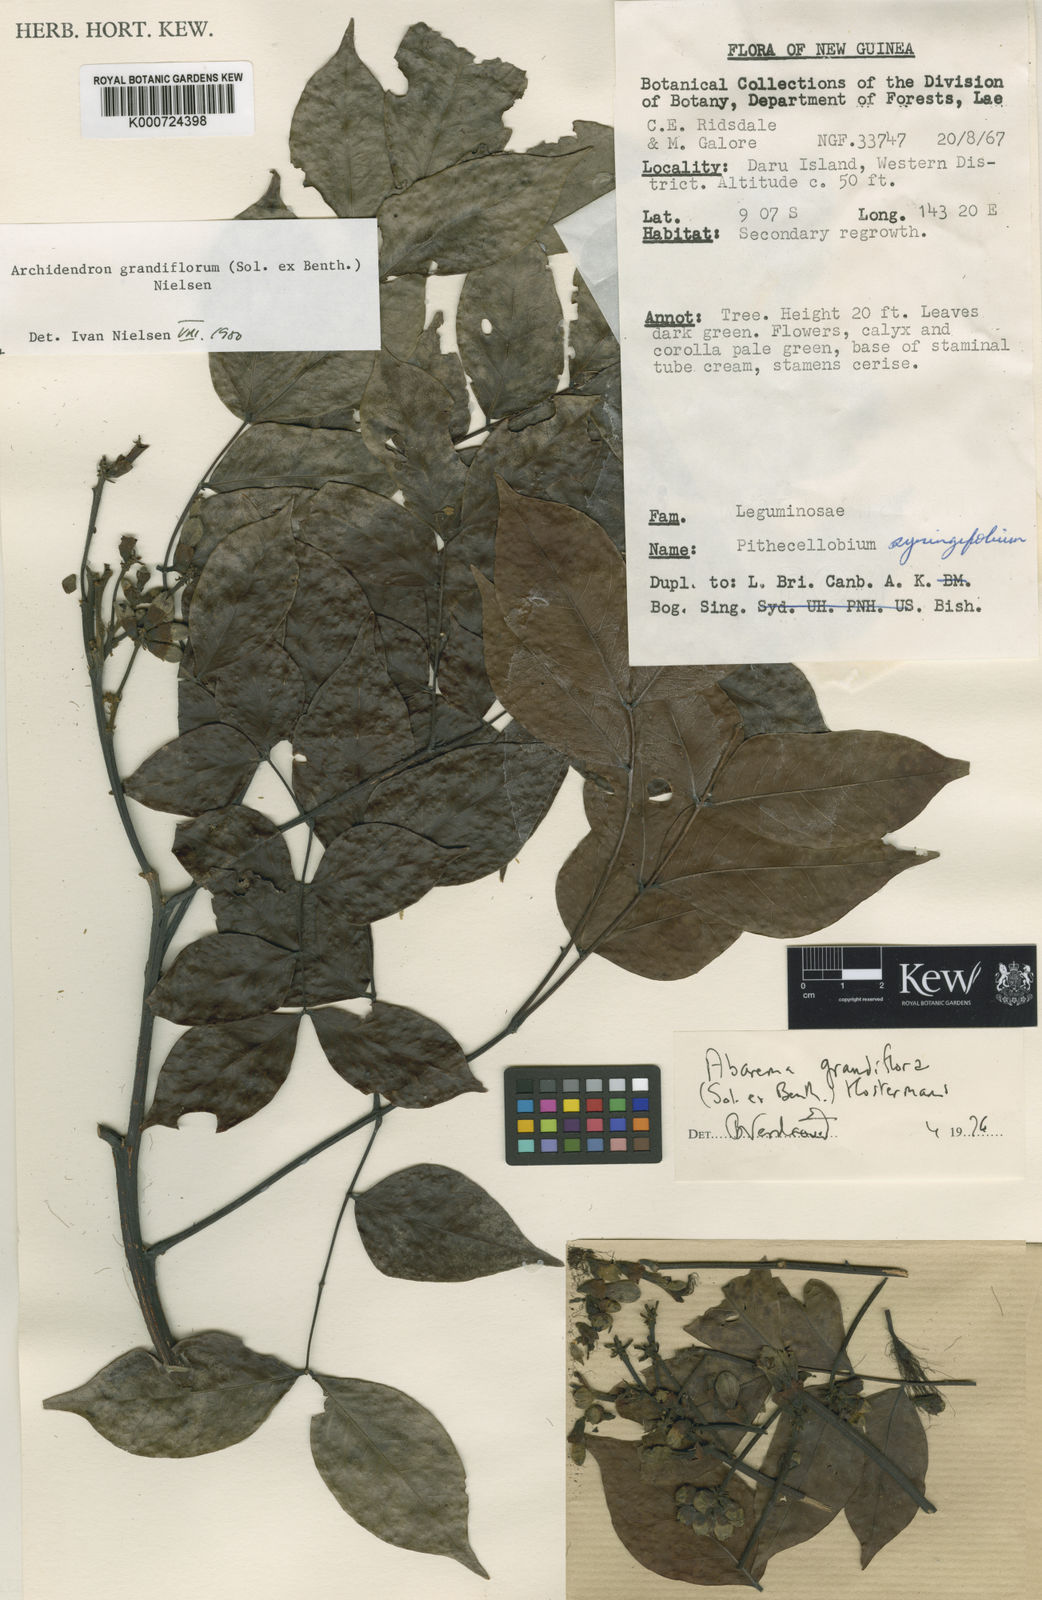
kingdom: Plantae
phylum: Tracheophyta
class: Magnoliopsida
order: Fabales
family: Fabaceae
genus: Archidendron
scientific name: Archidendron grandiflorum
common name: Tulip siris
